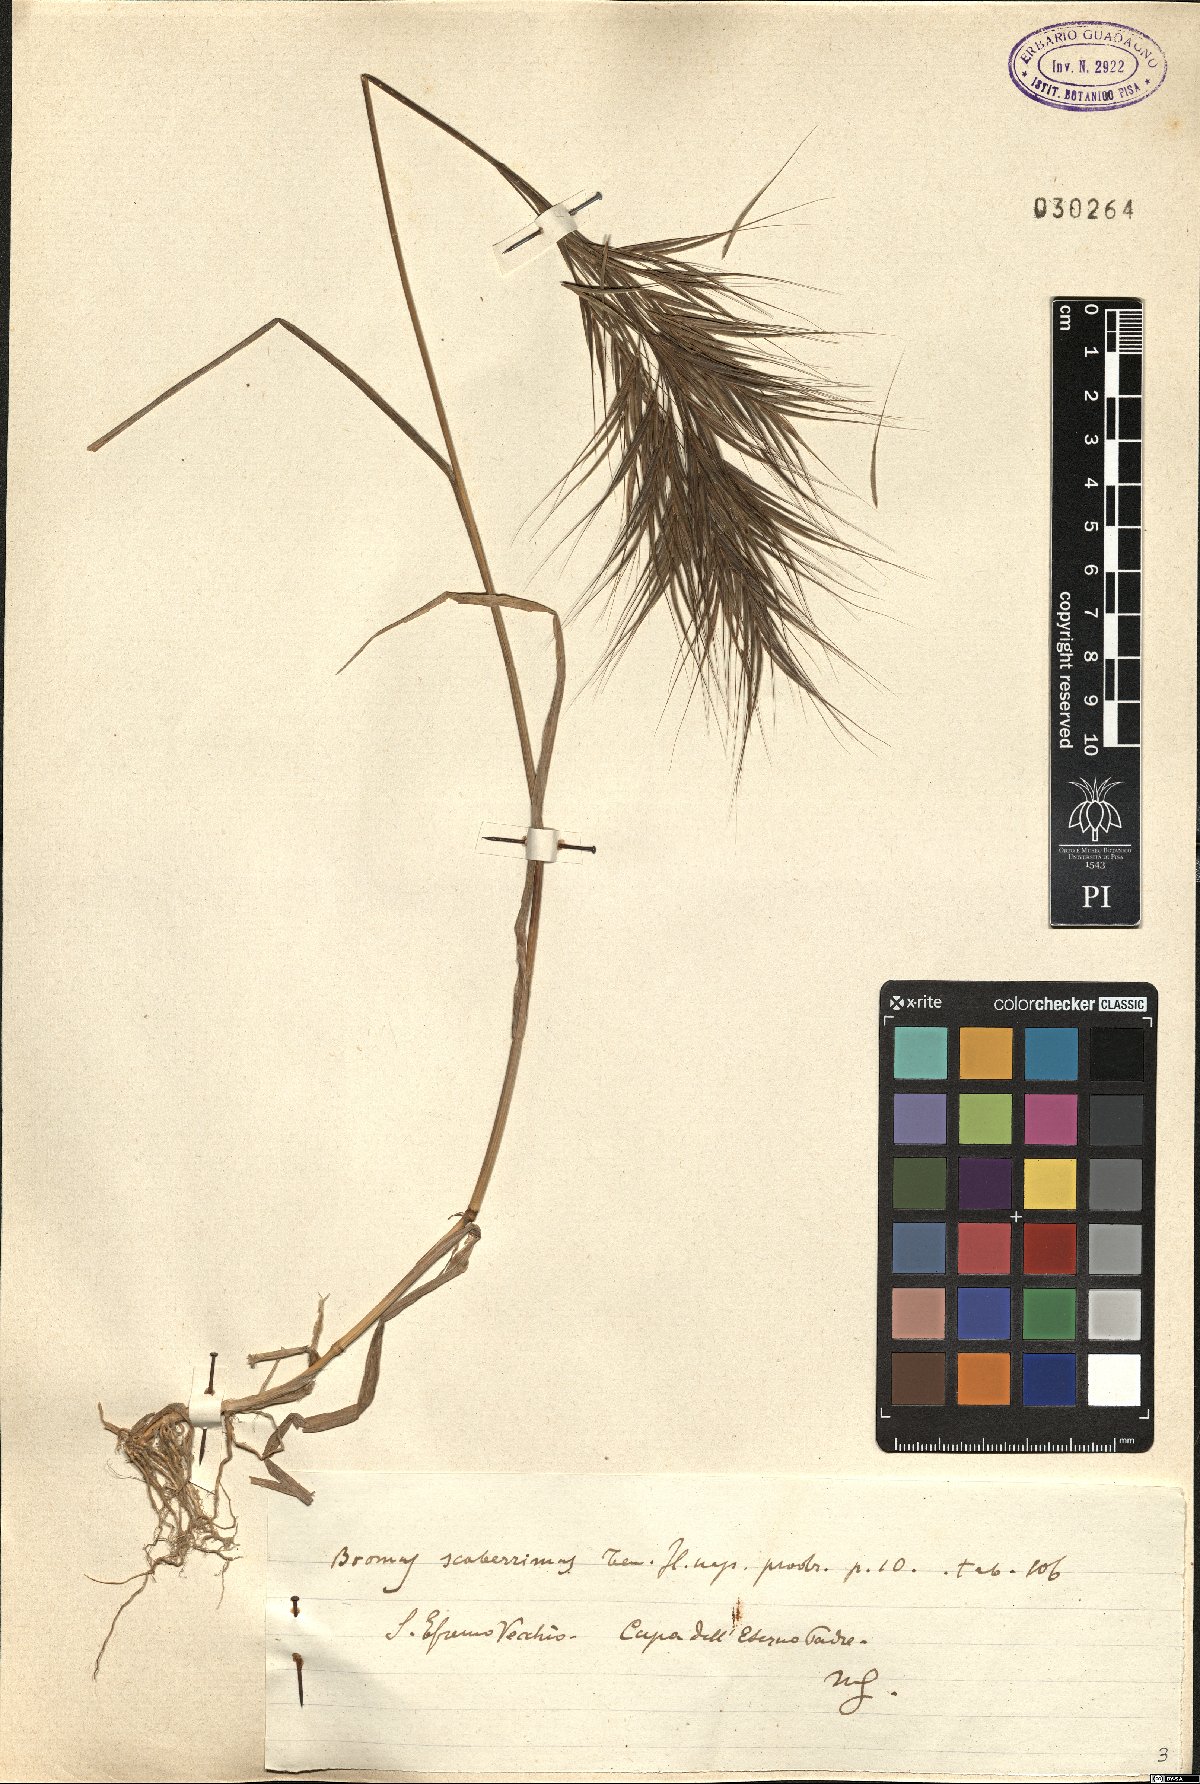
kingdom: Plantae
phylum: Tracheophyta
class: Liliopsida
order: Poales
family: Poaceae
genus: Bromus
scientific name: Bromus sterilis
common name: Poverty brome
